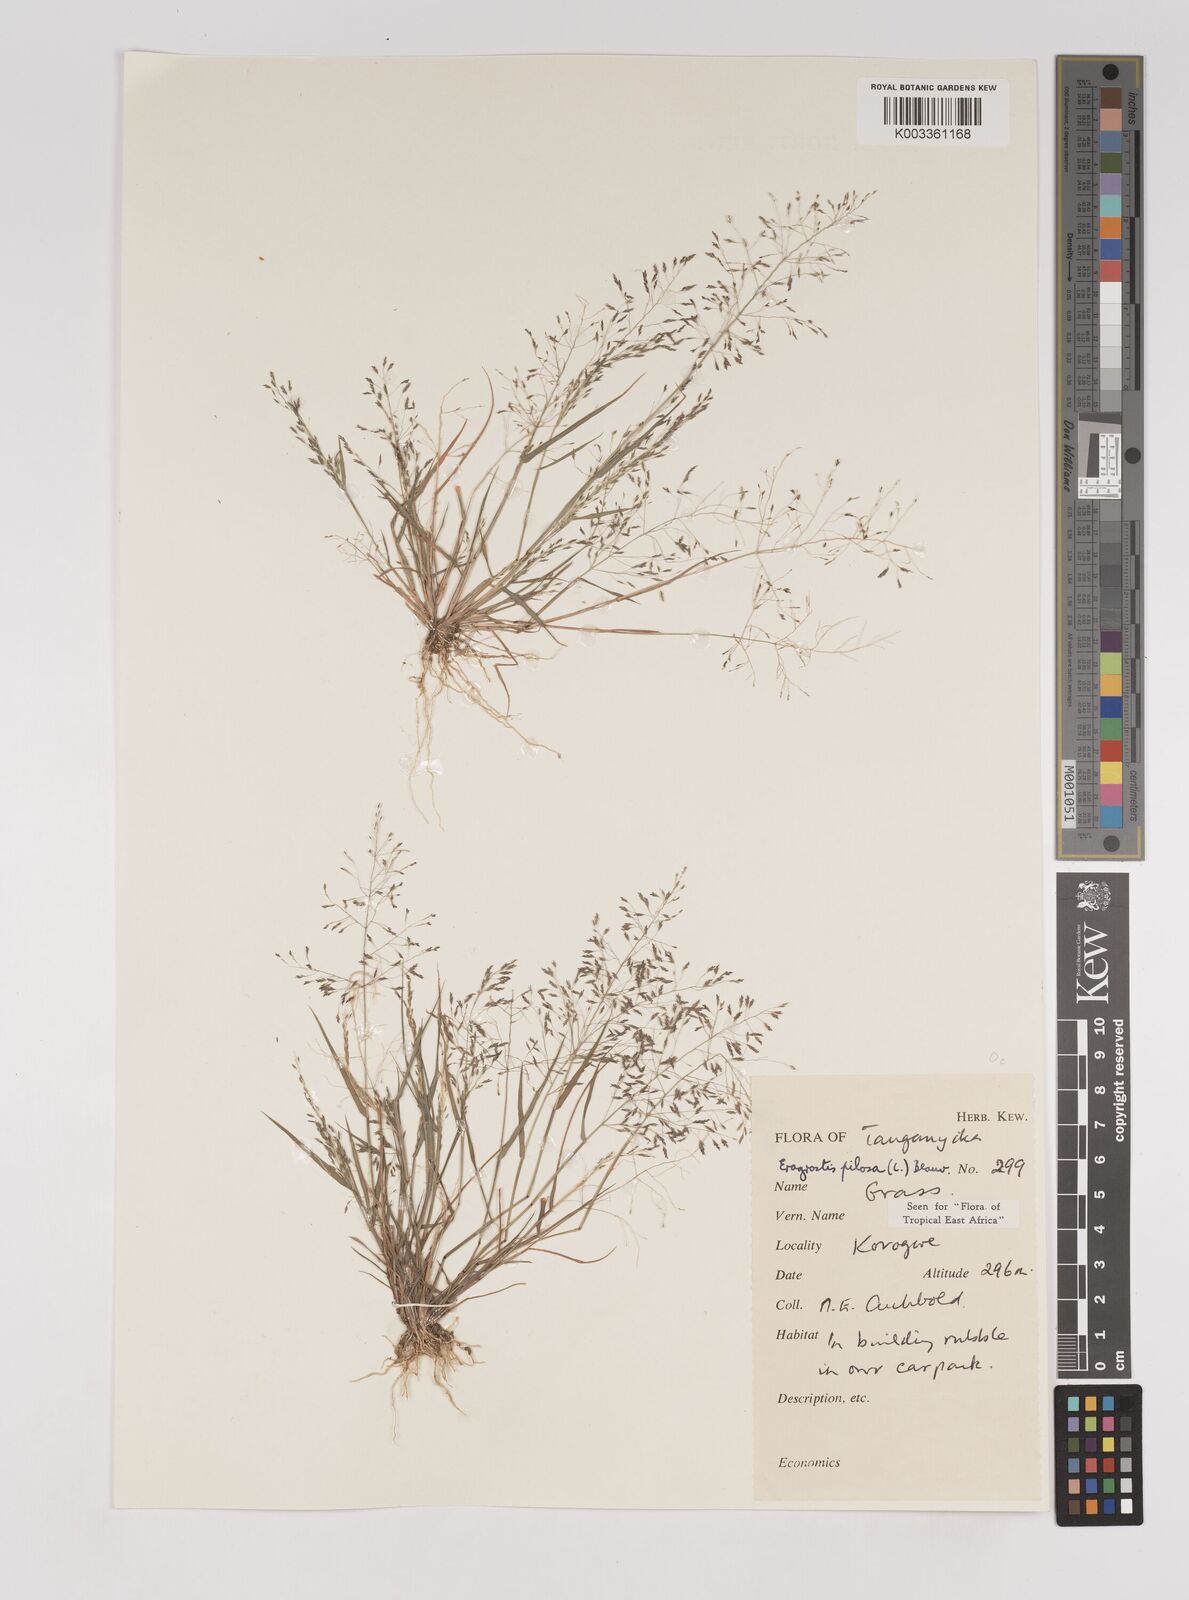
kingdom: Plantae
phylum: Tracheophyta
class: Liliopsida
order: Poales
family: Poaceae
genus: Eragrostis
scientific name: Eragrostis pilosa
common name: Indian lovegrass
